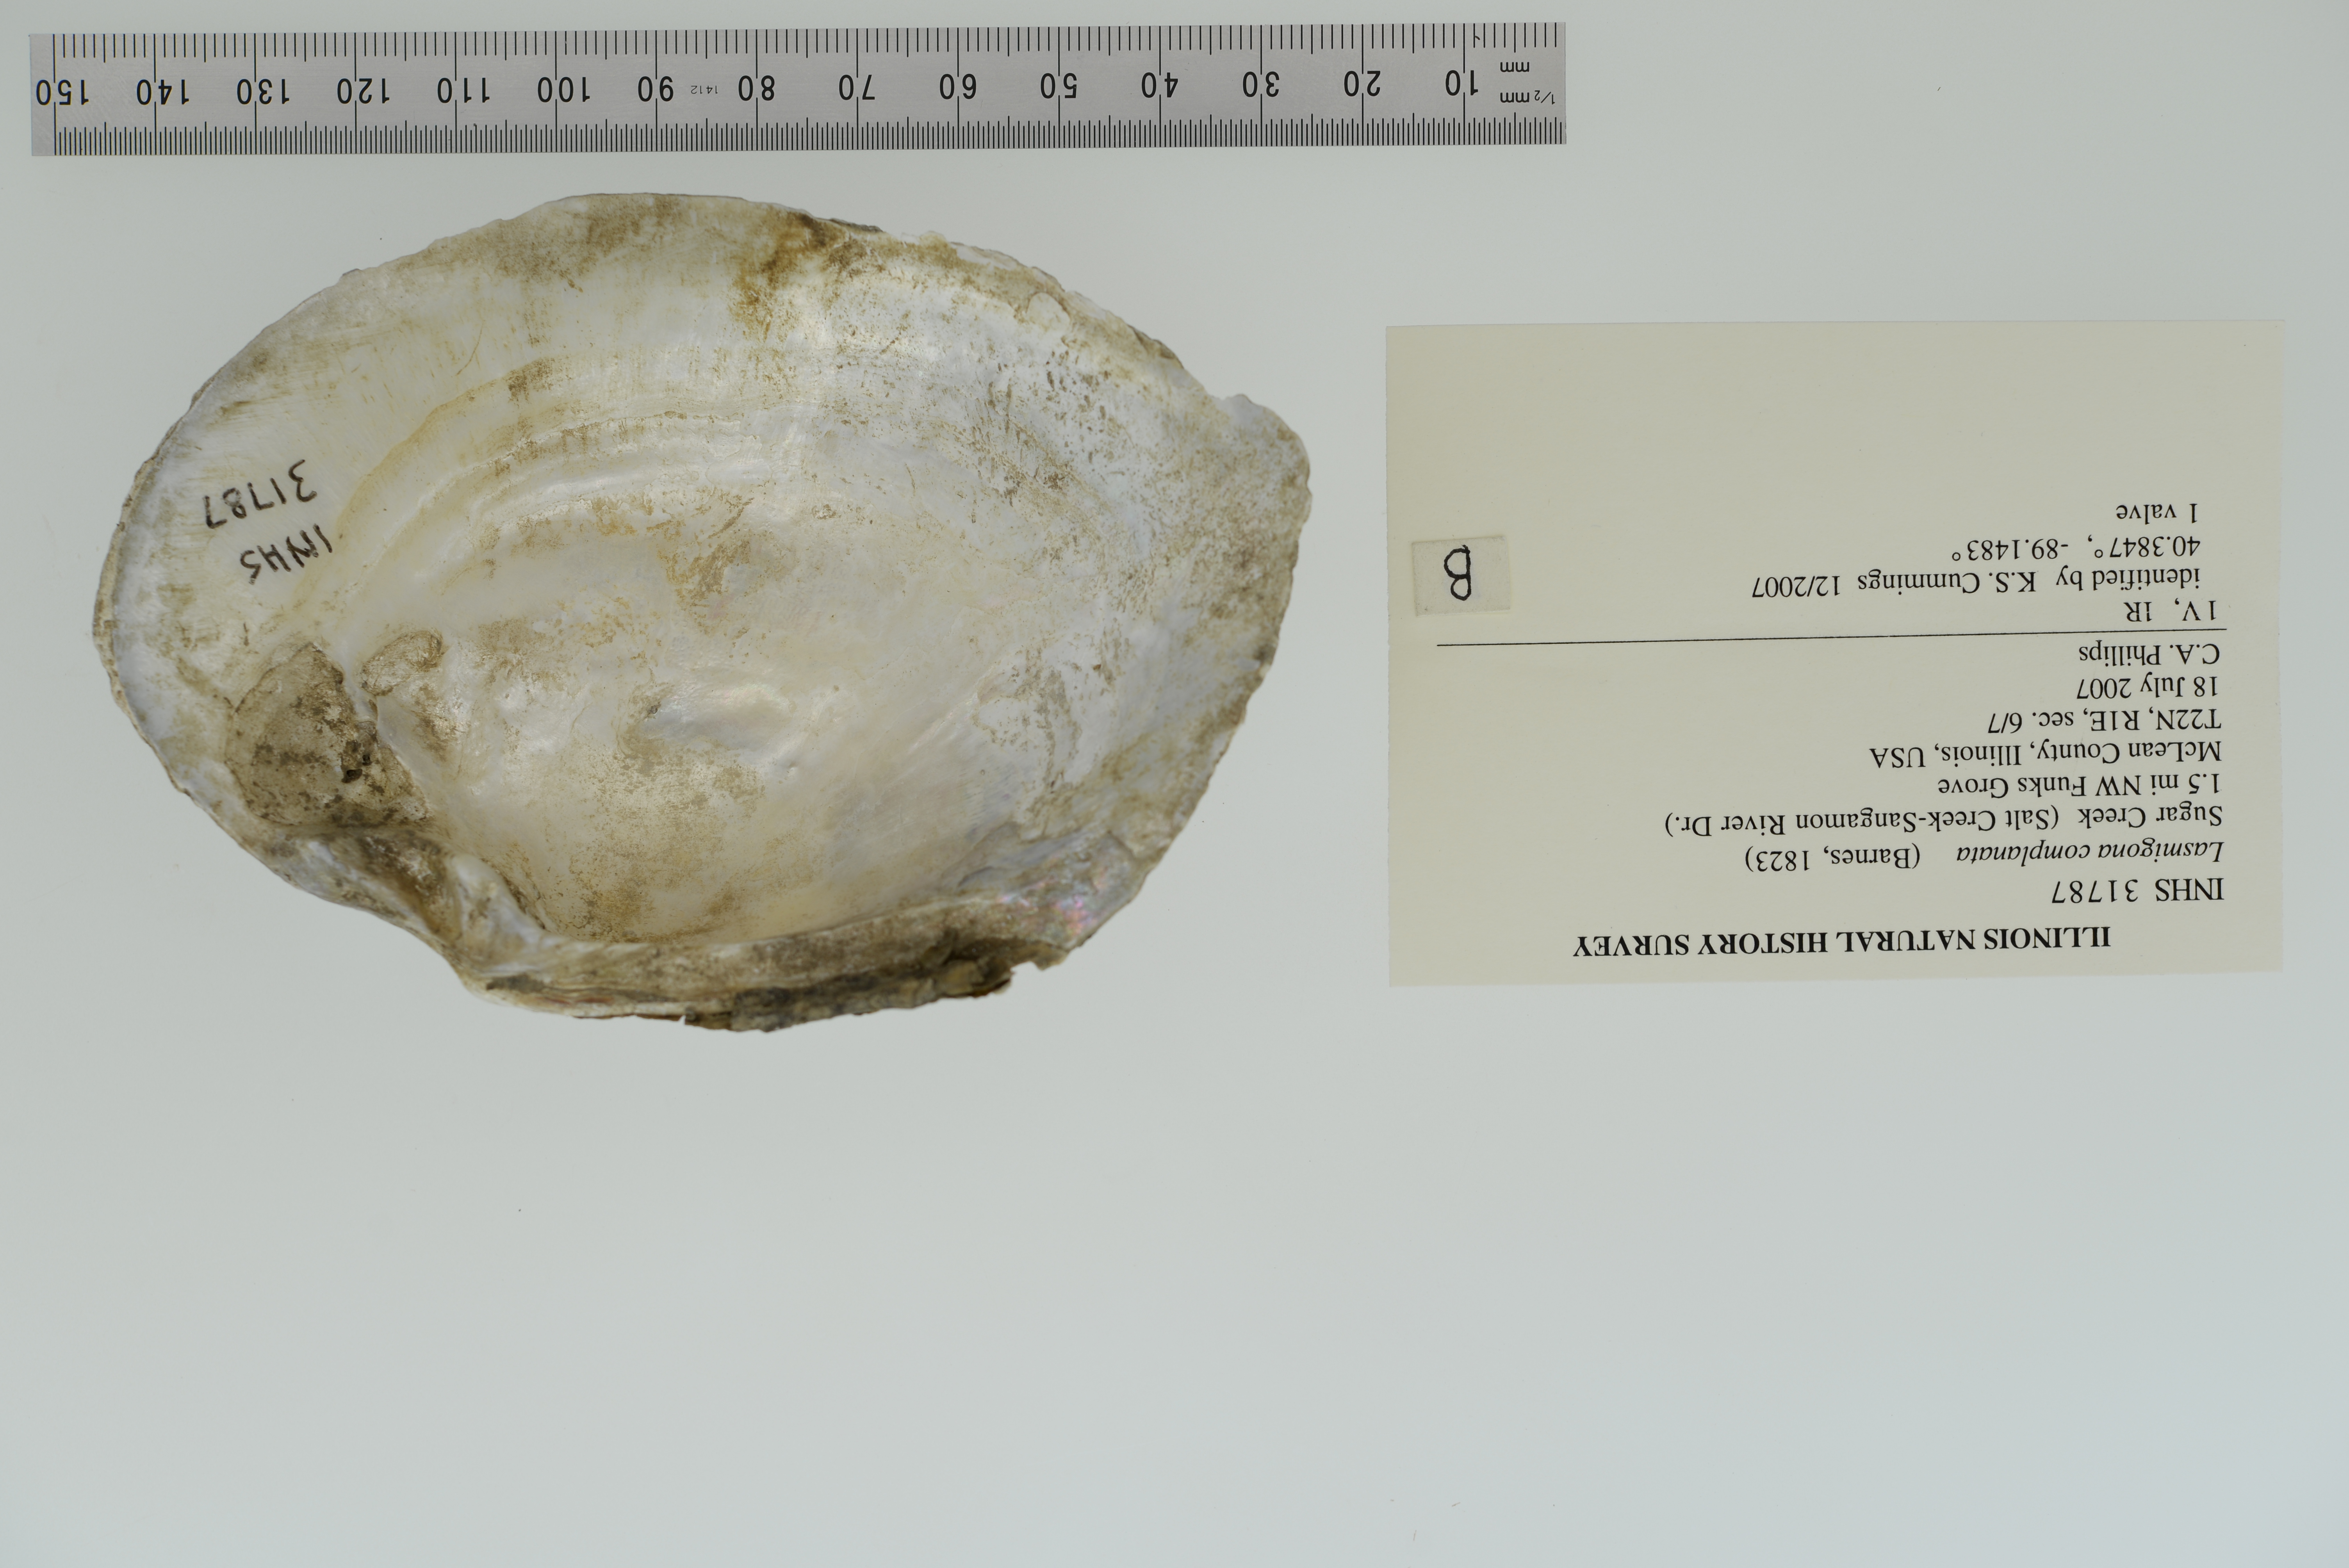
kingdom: Animalia
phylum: Mollusca
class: Bivalvia
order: Unionida
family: Unionidae
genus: Lasmigona
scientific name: Lasmigona complanata
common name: White heelsplitter
